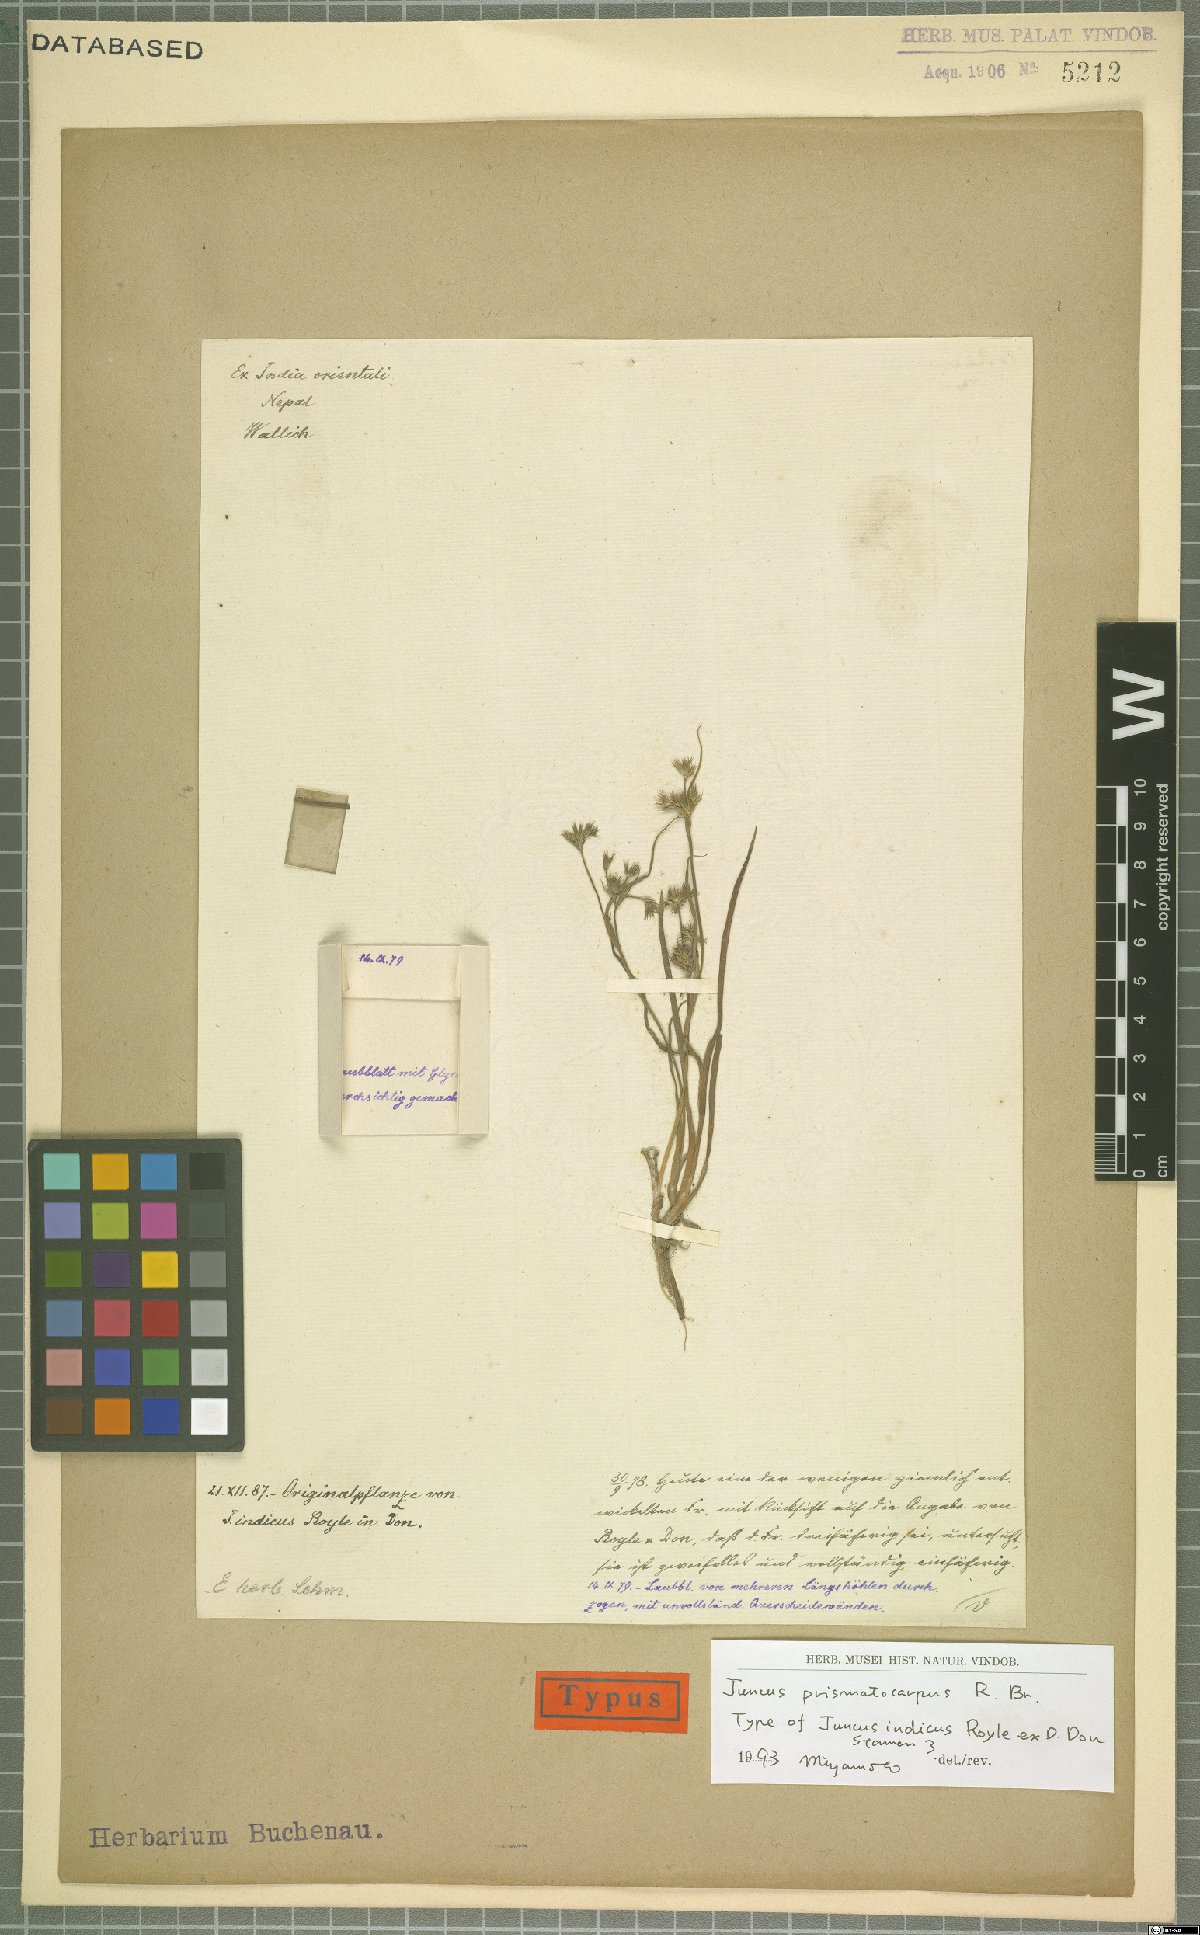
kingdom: Plantae
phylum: Tracheophyta
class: Liliopsida
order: Poales
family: Juncaceae
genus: Juncus
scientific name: Juncus prismatocarpus
